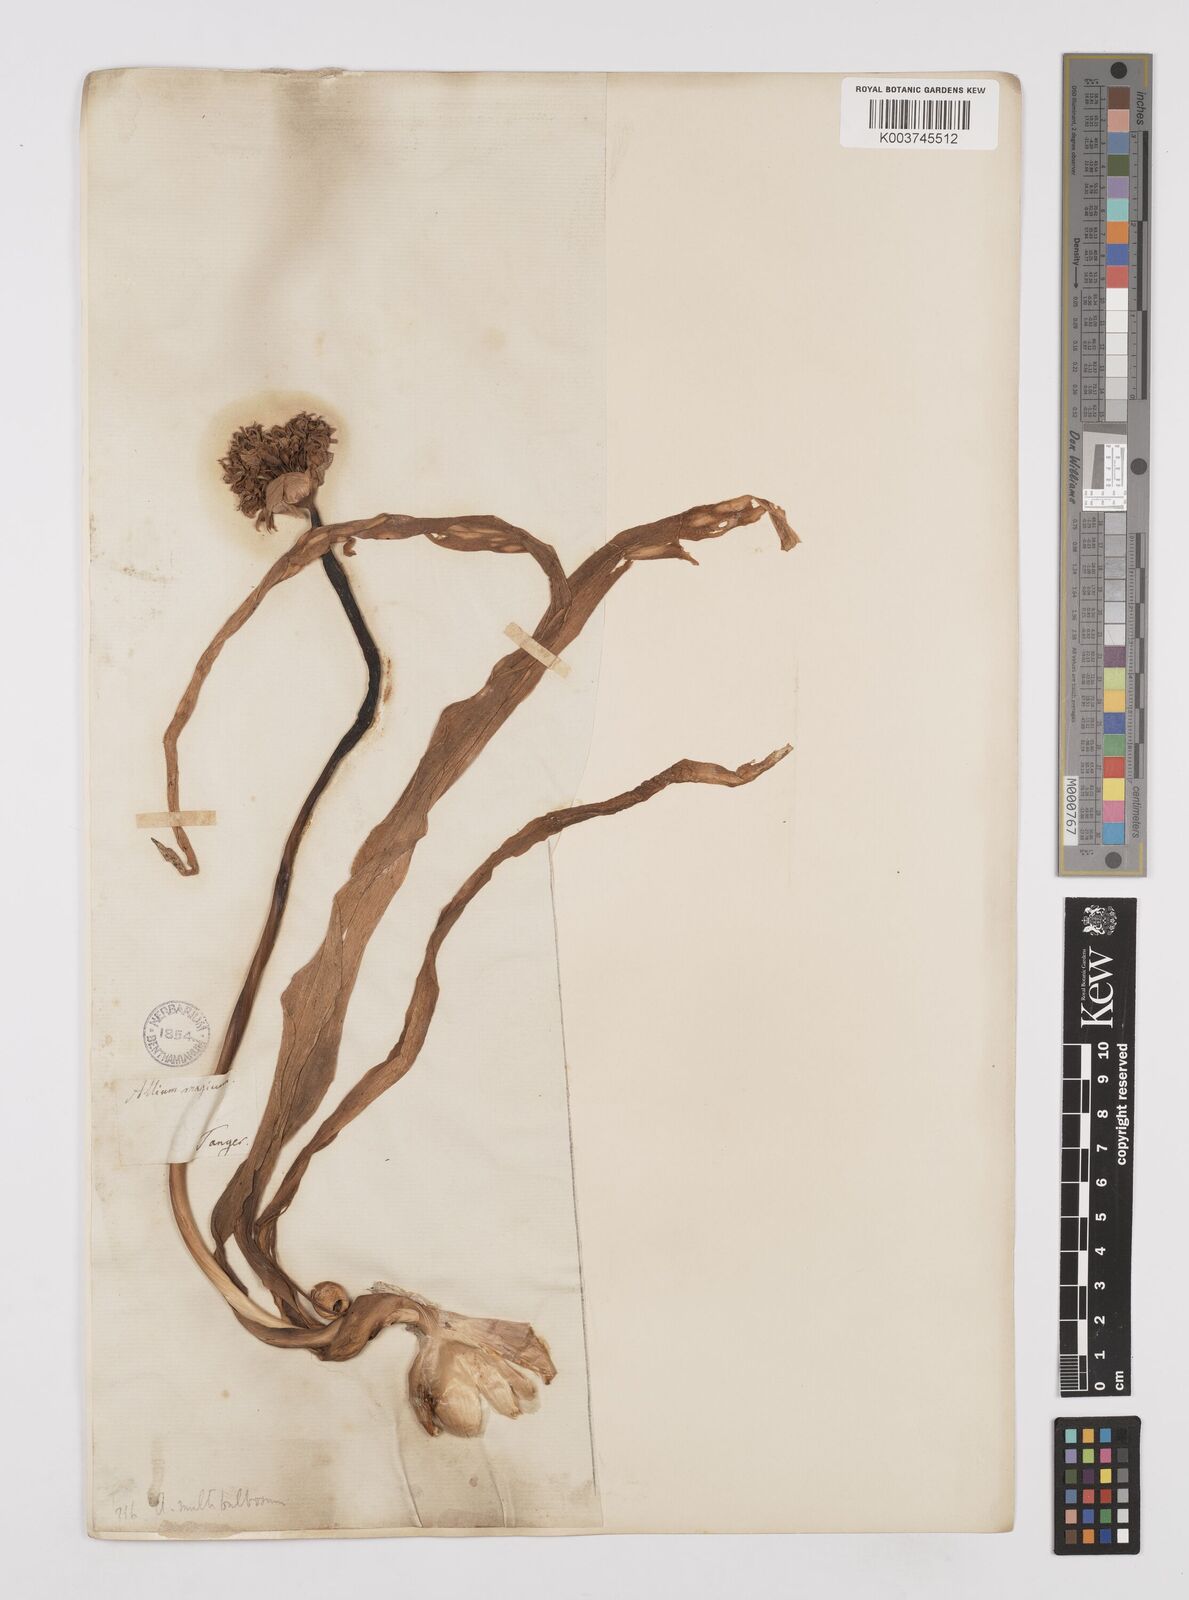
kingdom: Plantae
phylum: Tracheophyta
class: Liliopsida
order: Asparagales
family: Amaryllidaceae
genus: Allium
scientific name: Allium multibulbosum
